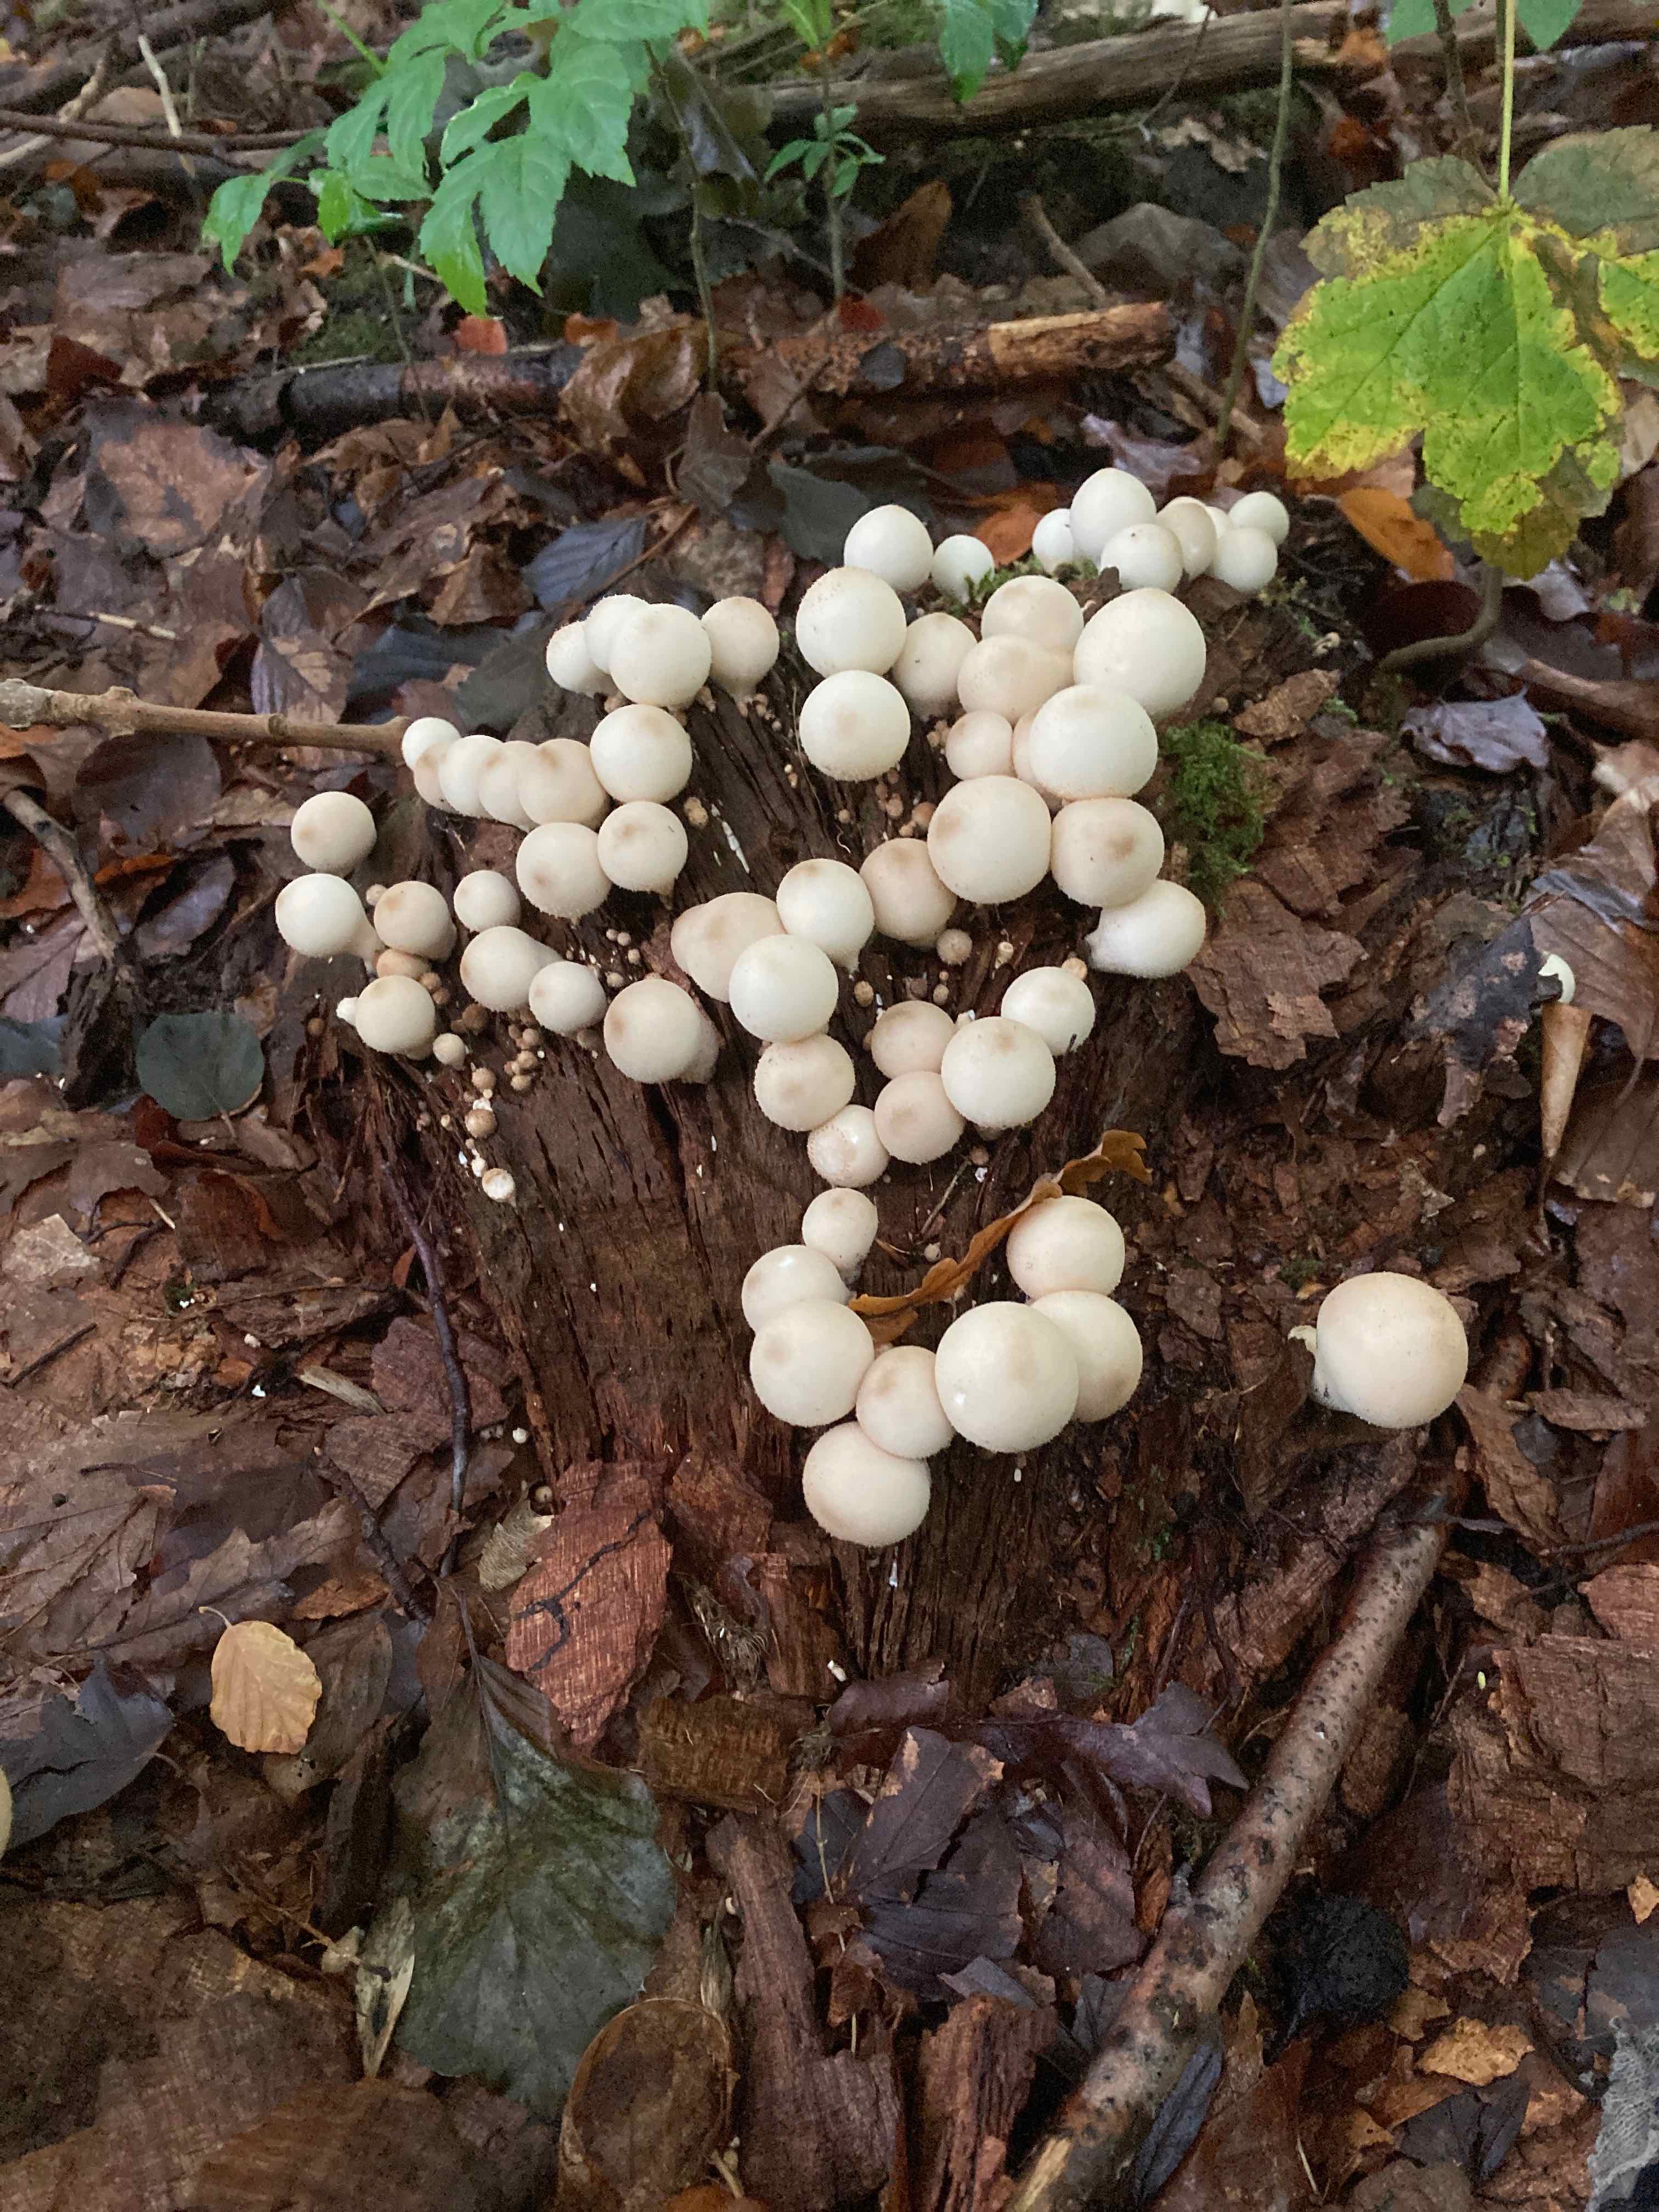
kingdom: Fungi
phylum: Basidiomycota
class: Agaricomycetes
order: Agaricales
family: Lycoperdaceae
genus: Apioperdon
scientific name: Apioperdon pyriforme
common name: pære-støvbold
